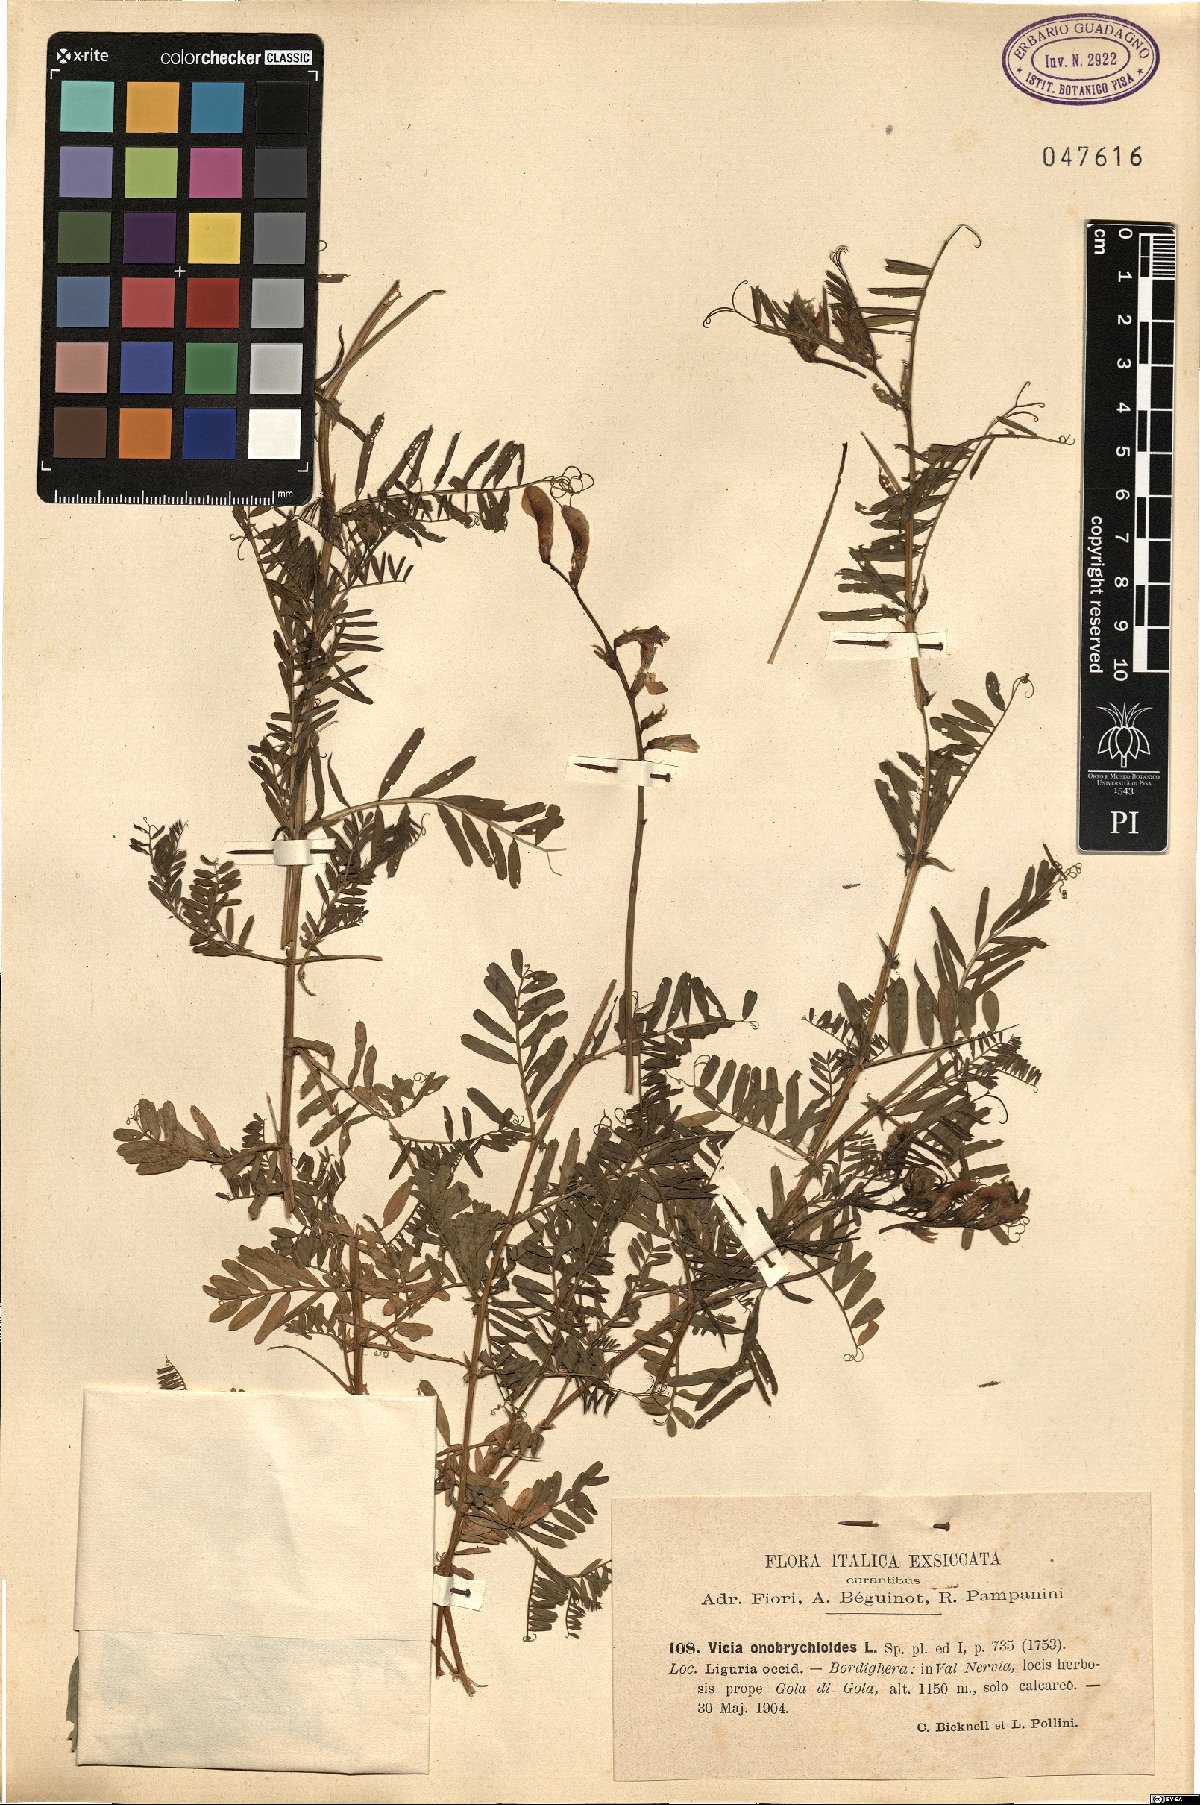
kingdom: Plantae
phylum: Tracheophyta
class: Magnoliopsida
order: Fabales
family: Fabaceae
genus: Vicia
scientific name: Vicia onobrychioides
